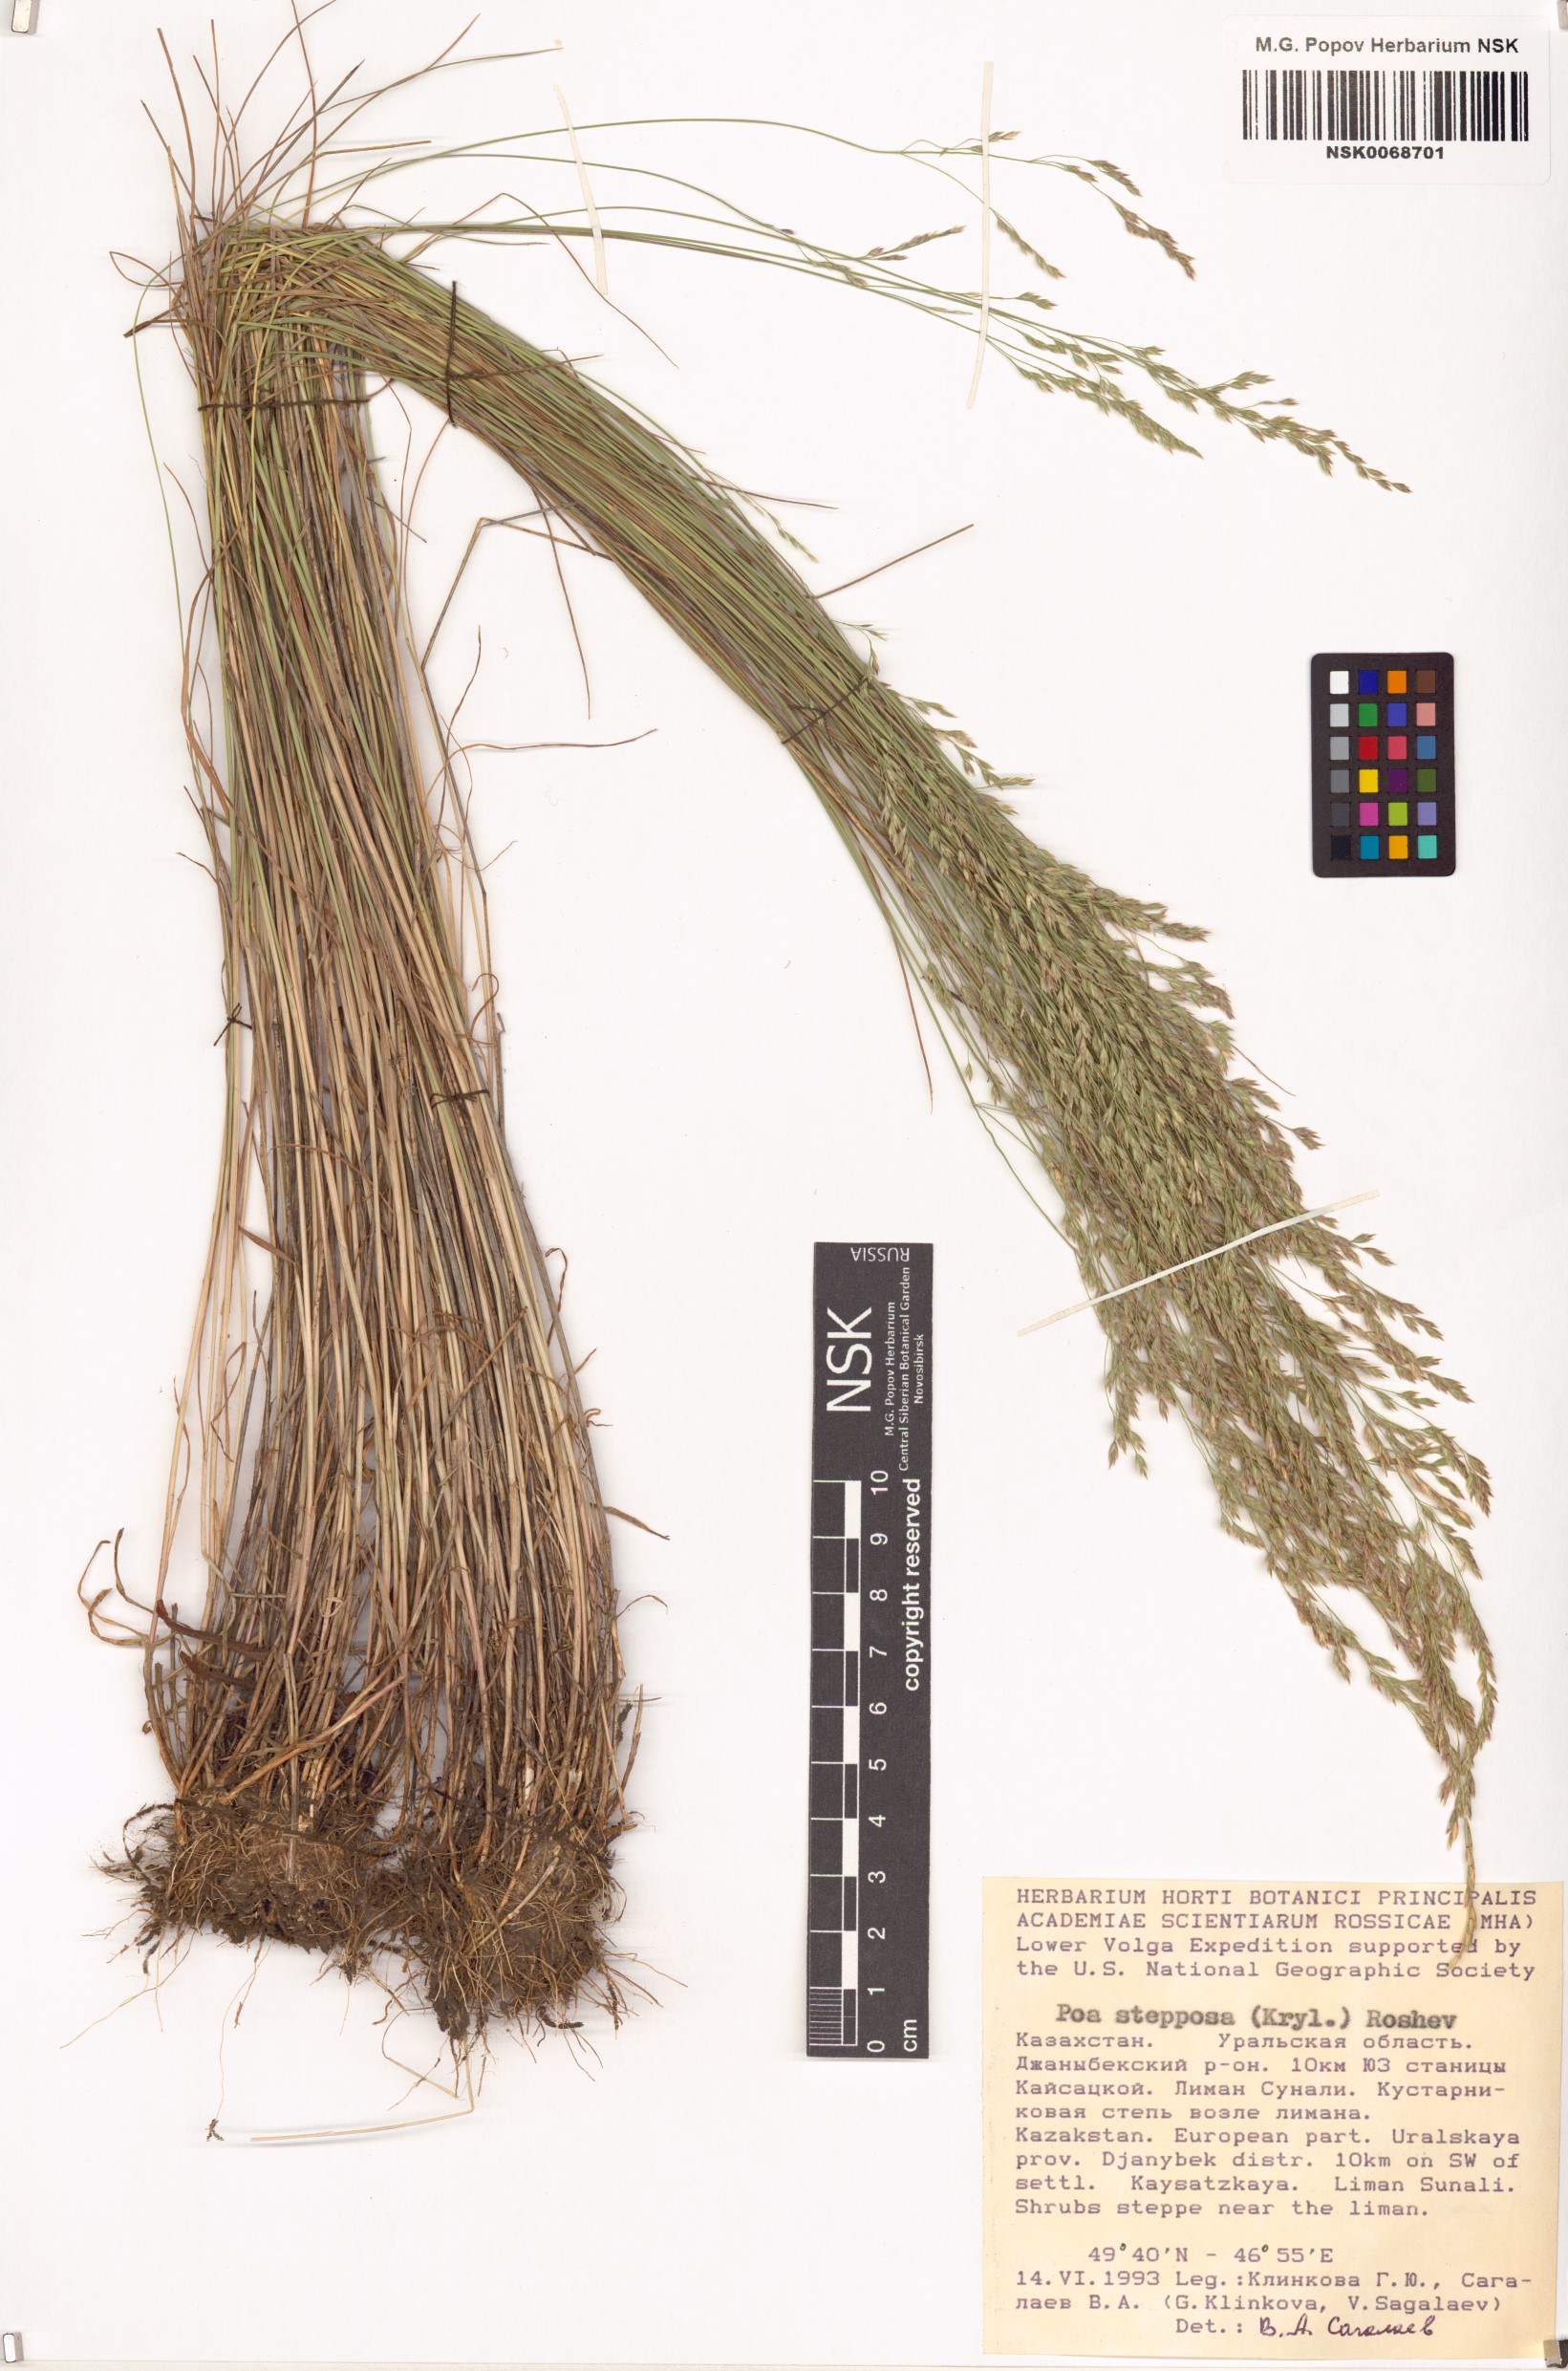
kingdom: Plantae
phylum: Tracheophyta
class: Liliopsida
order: Poales
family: Poaceae
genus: Poa
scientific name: Poa versicolor
